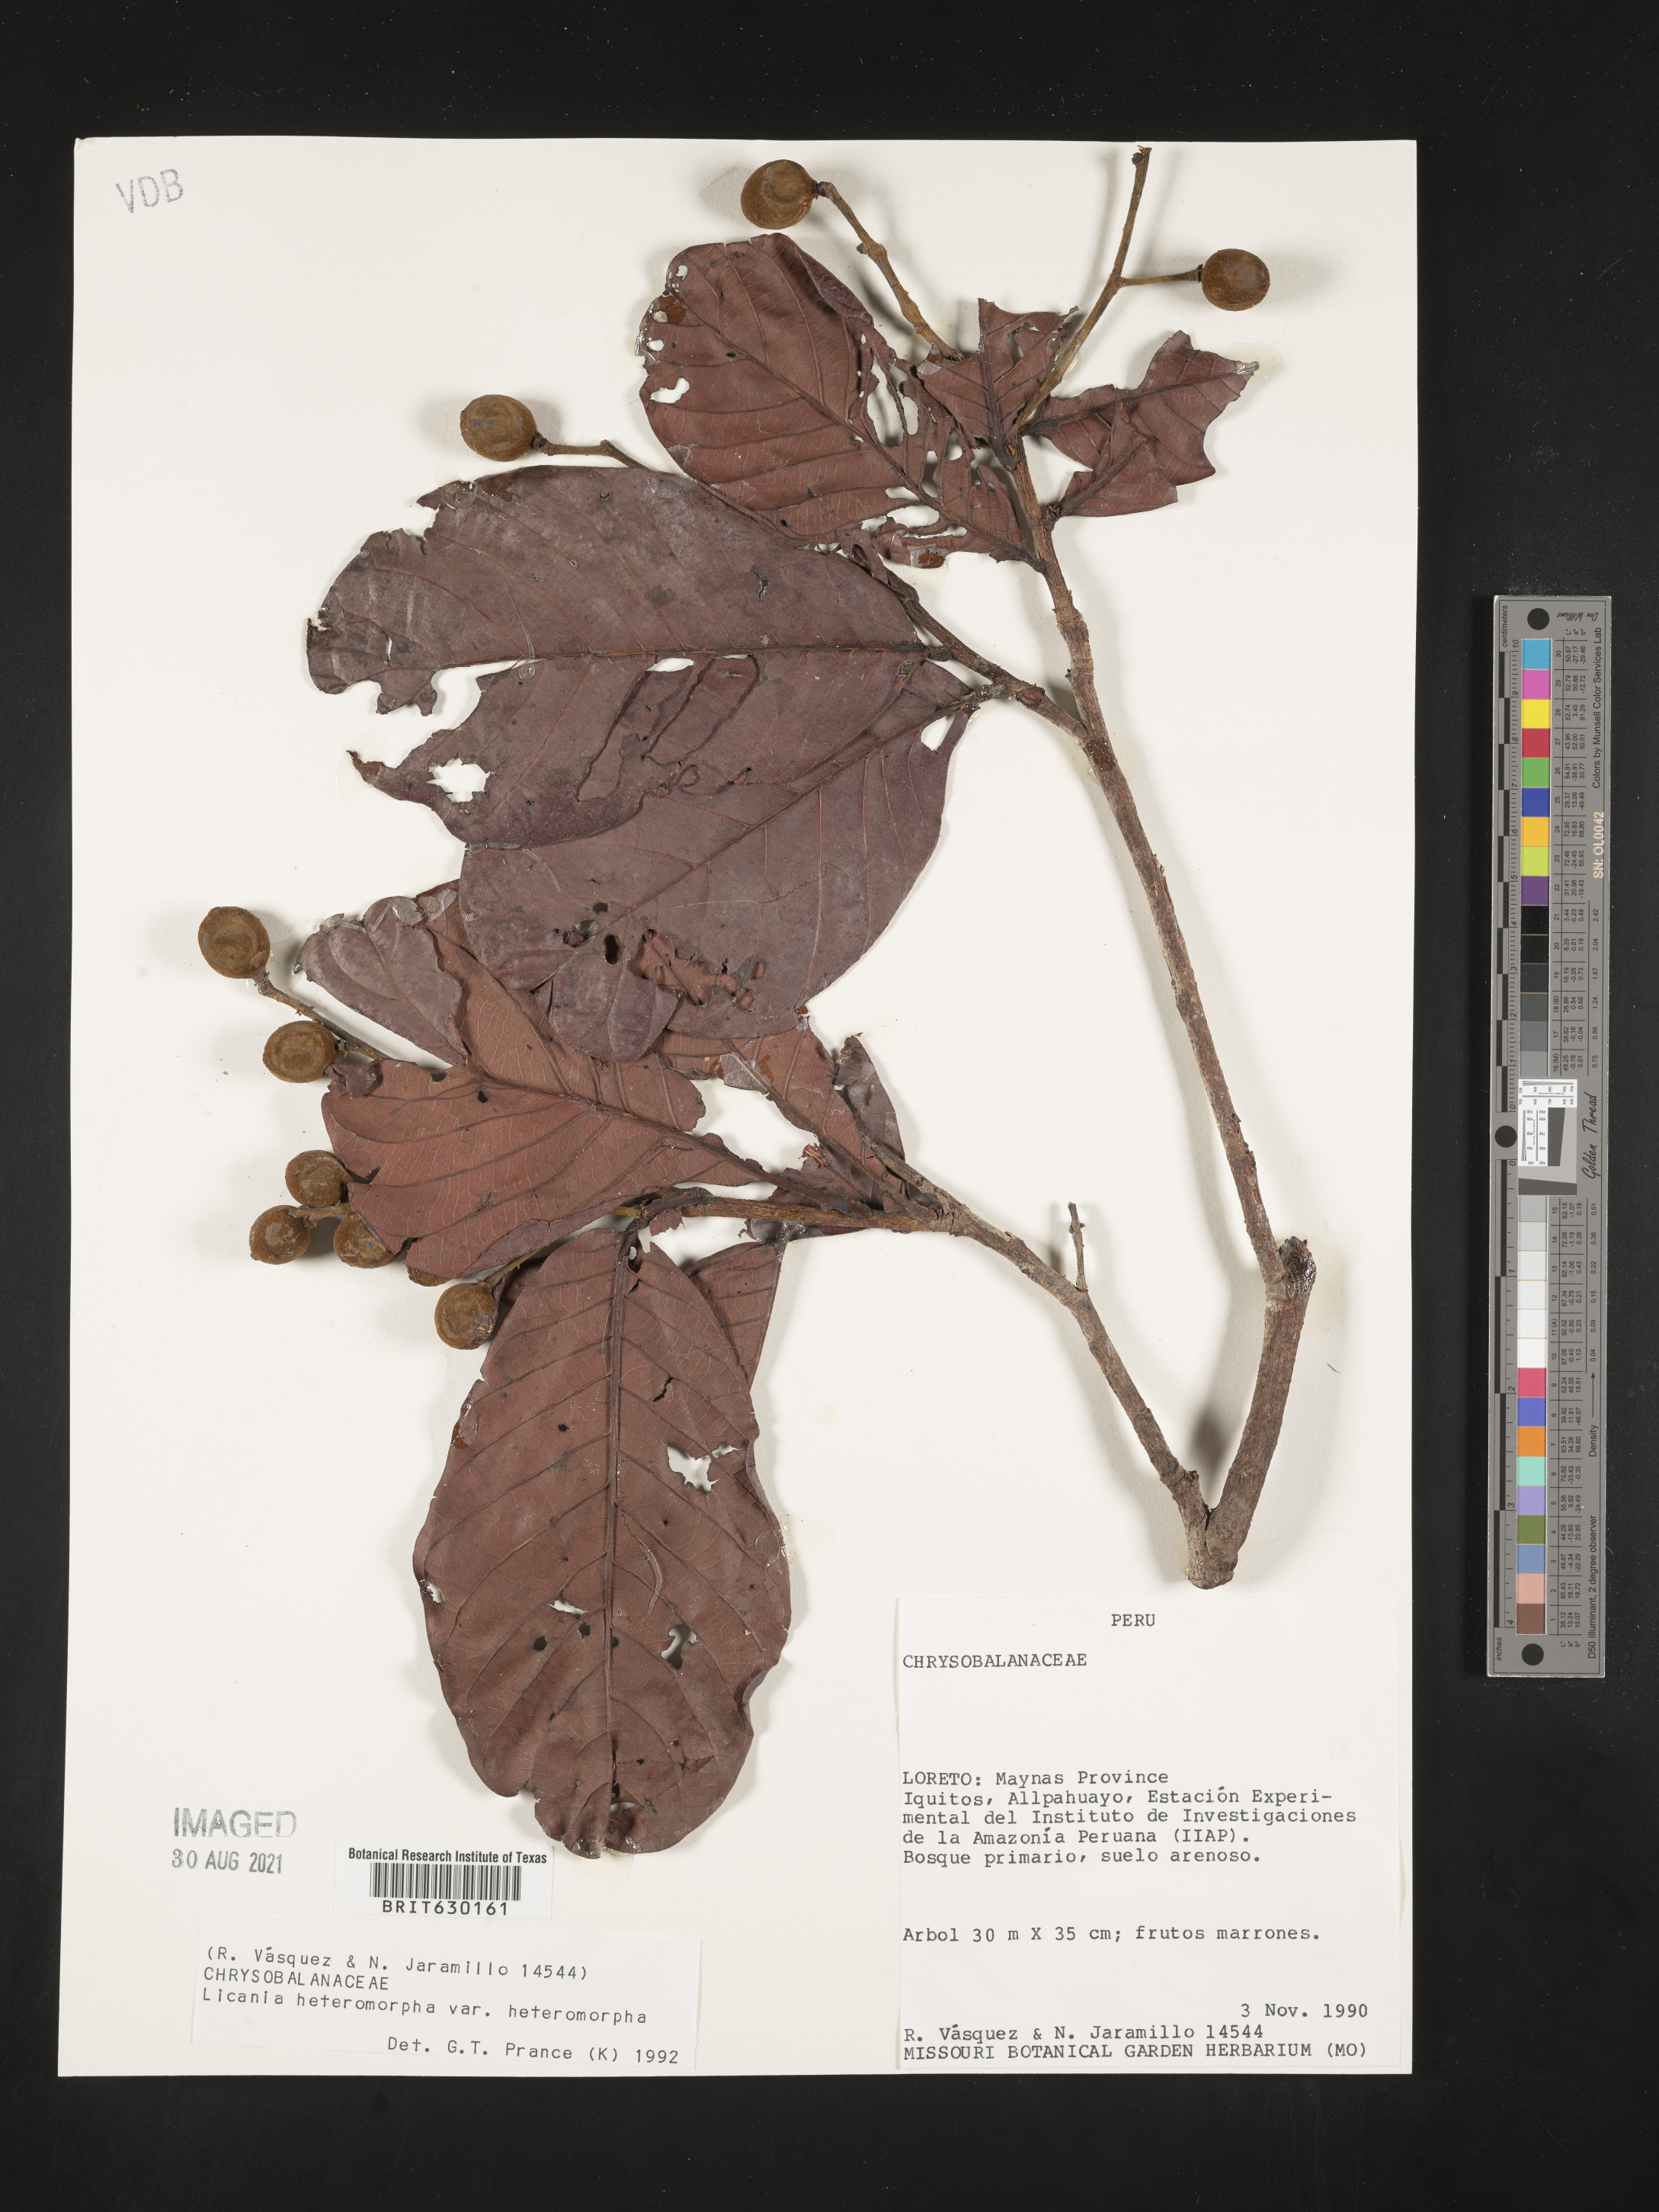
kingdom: Plantae
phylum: Tracheophyta
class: Magnoliopsida
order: Malpighiales
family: Chrysobalanaceae
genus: Hymenopus
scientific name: Hymenopus heteromorphus
